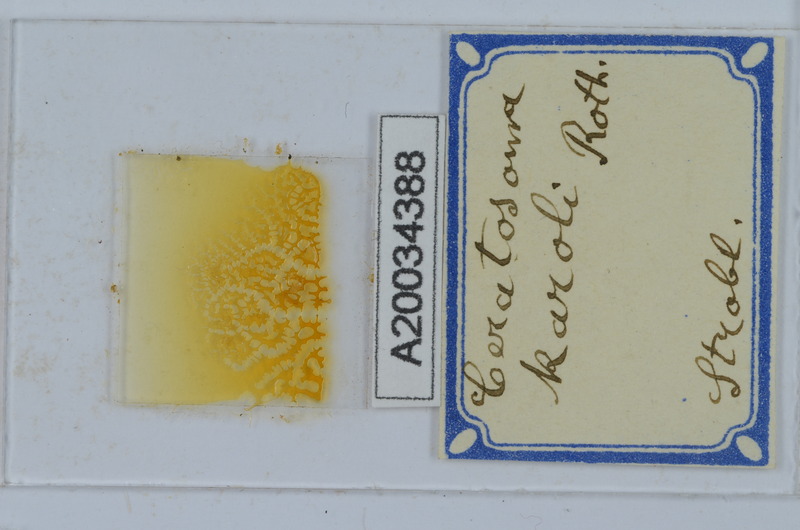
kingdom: Animalia
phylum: Arthropoda
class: Diplopoda
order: Chordeumatida
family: Craspedosomatidae
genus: Ochogona
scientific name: Ochogona caroli
